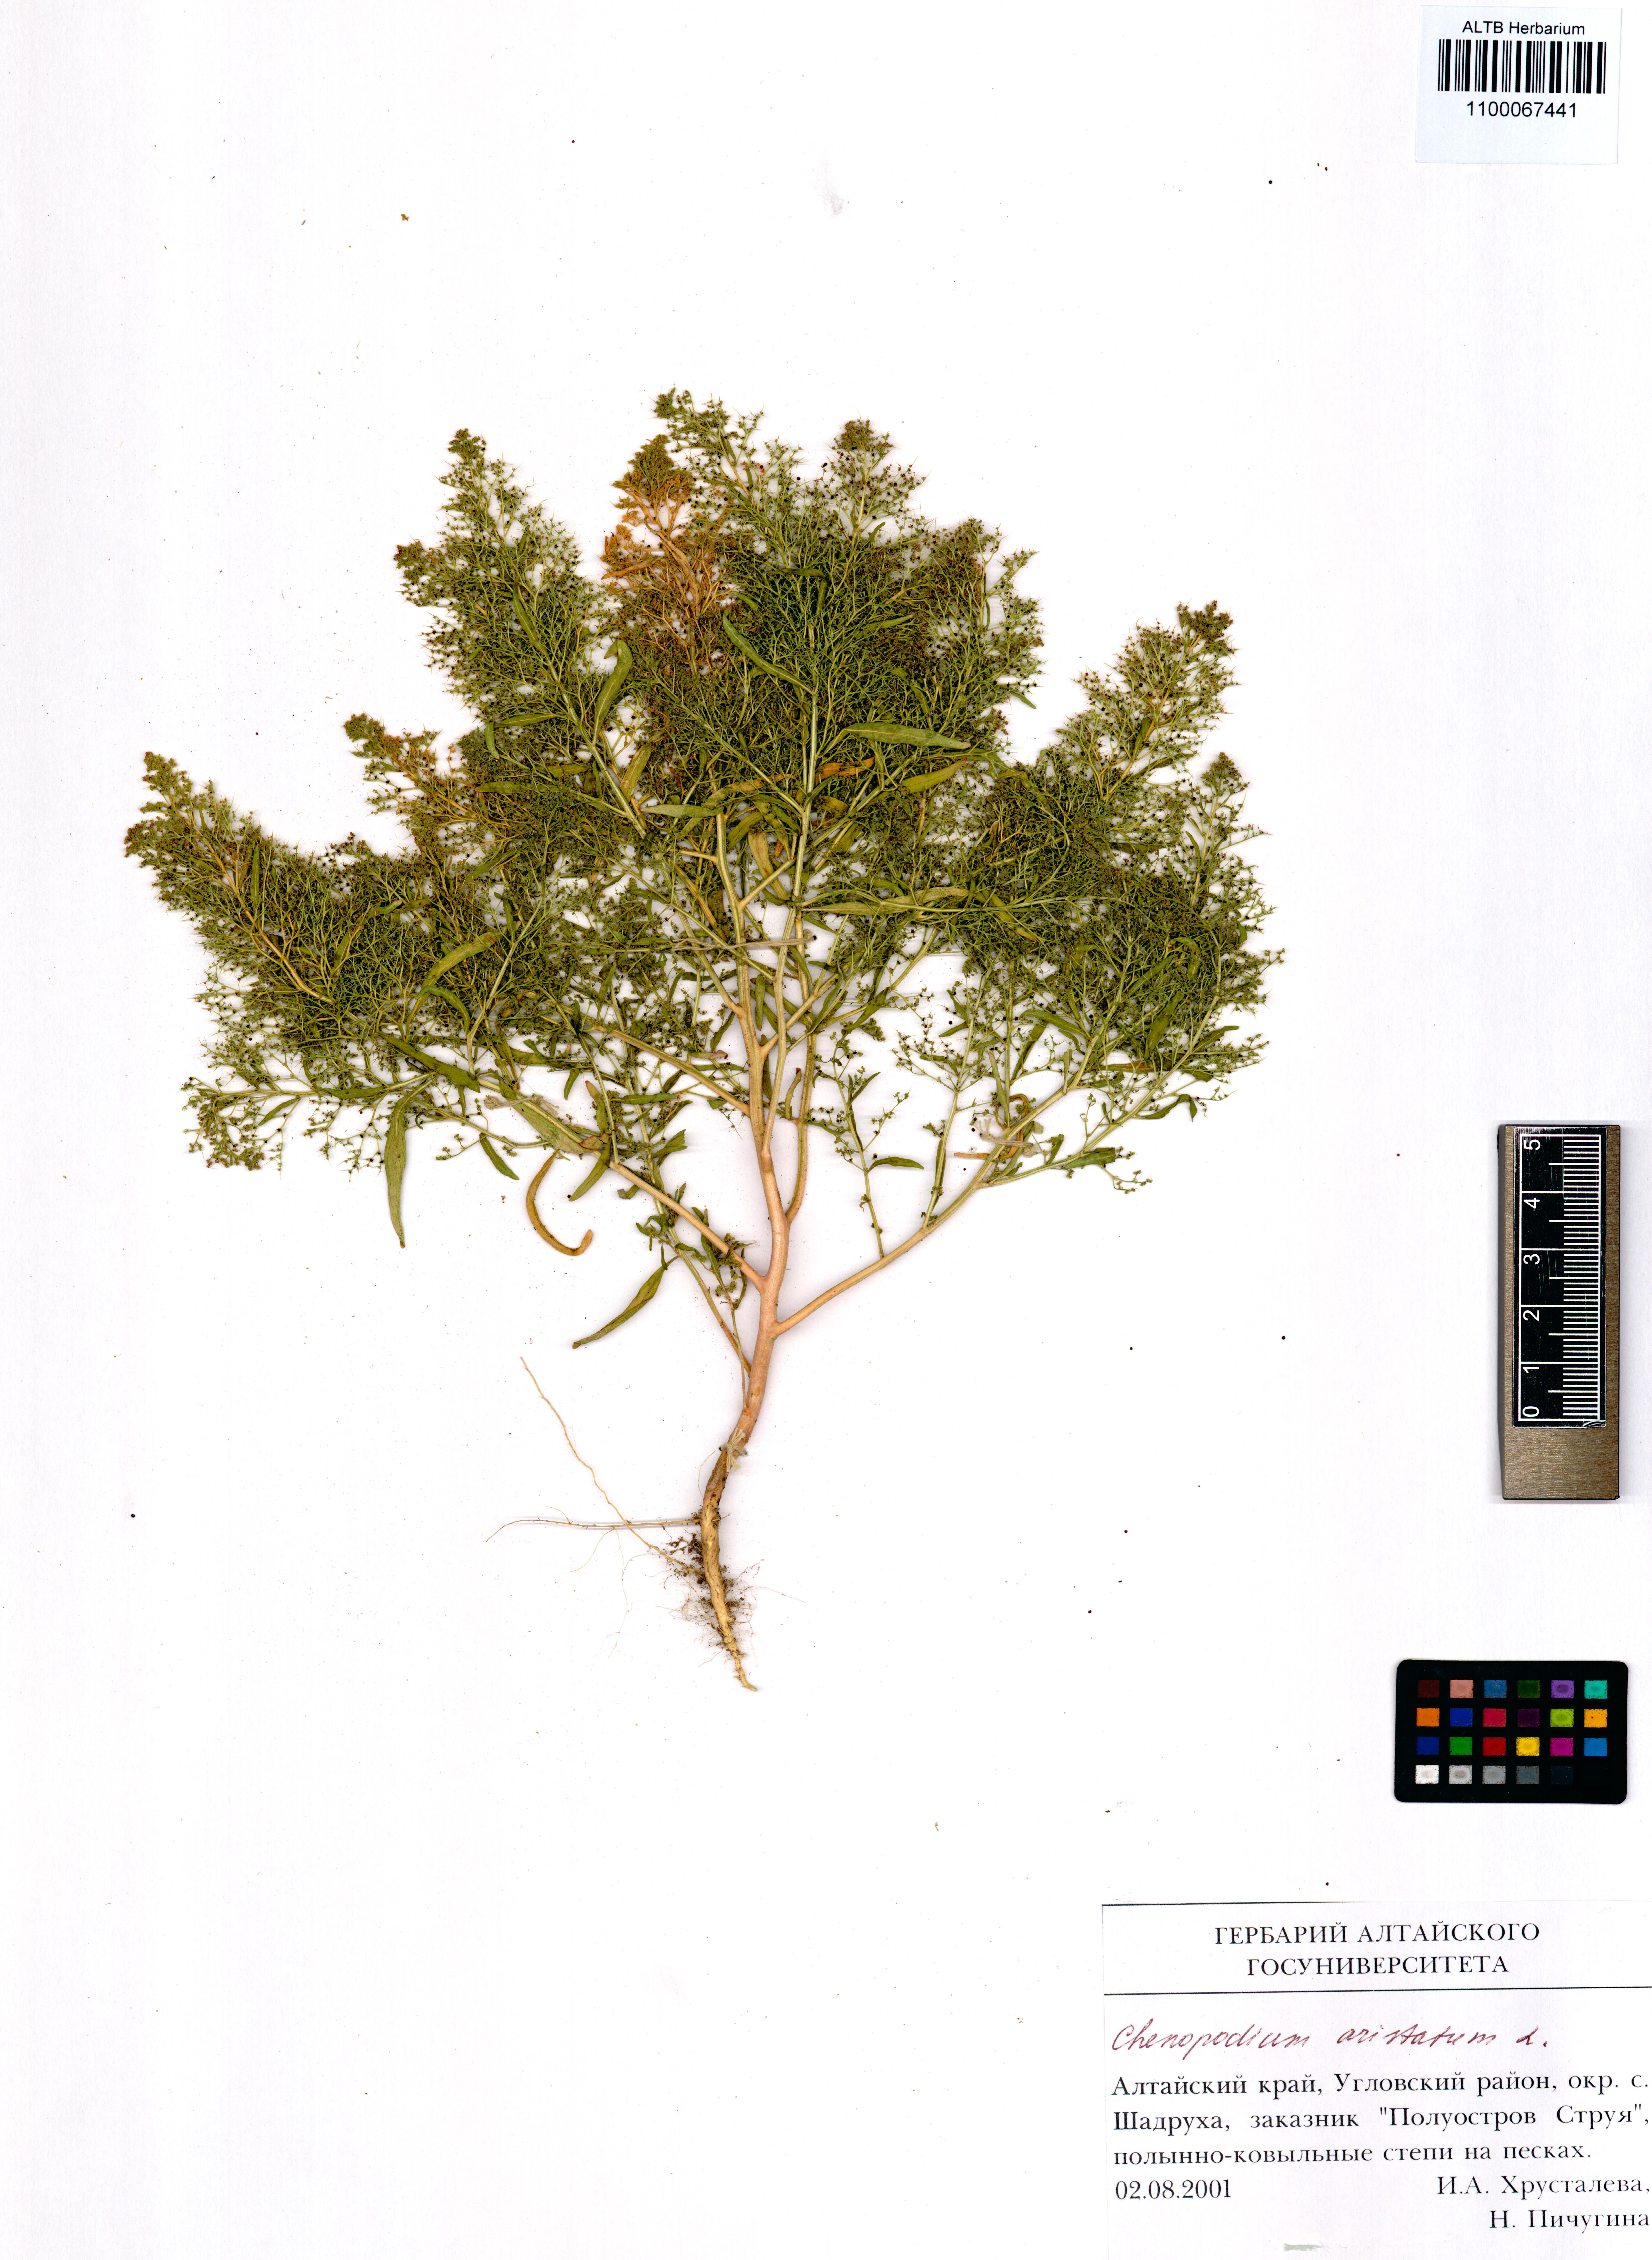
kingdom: Plantae
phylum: Tracheophyta
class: Magnoliopsida
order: Caryophyllales
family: Amaranthaceae
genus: Teloxys
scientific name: Teloxys aristata
